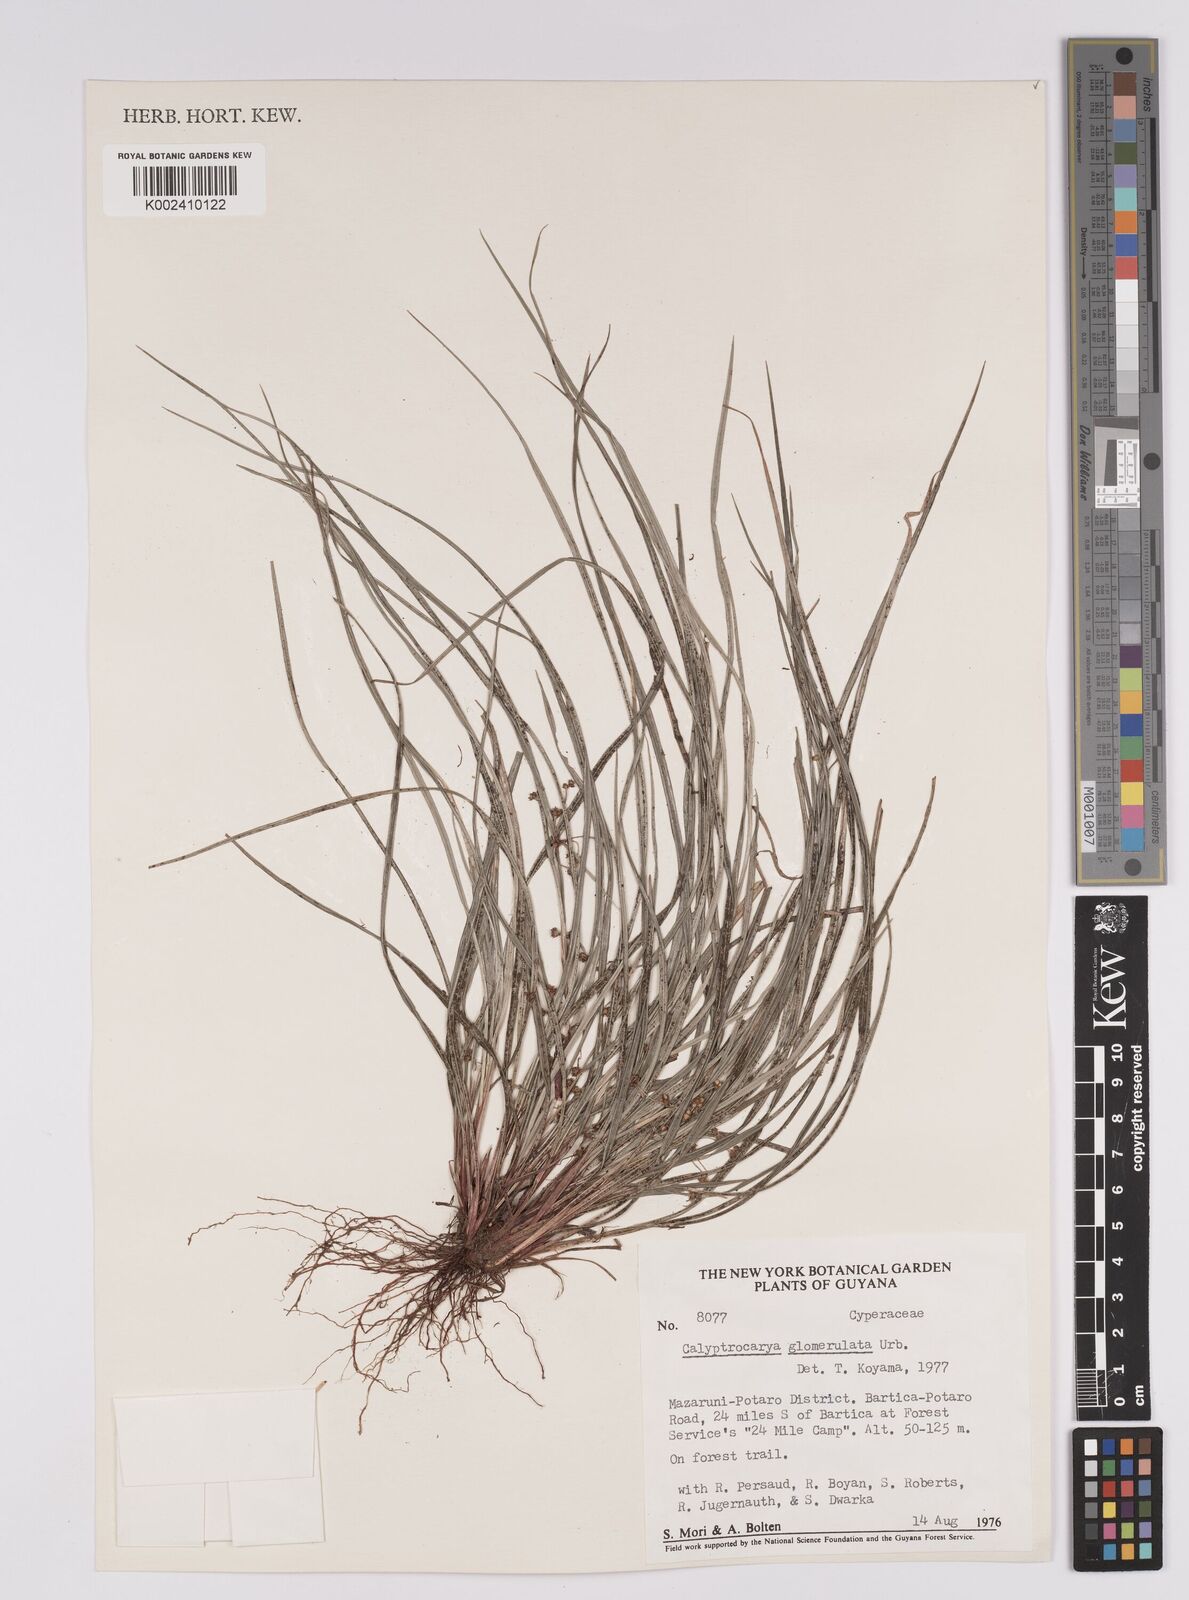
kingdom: Plantae
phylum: Tracheophyta
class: Liliopsida
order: Poales
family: Cyperaceae
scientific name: Cyperaceae
